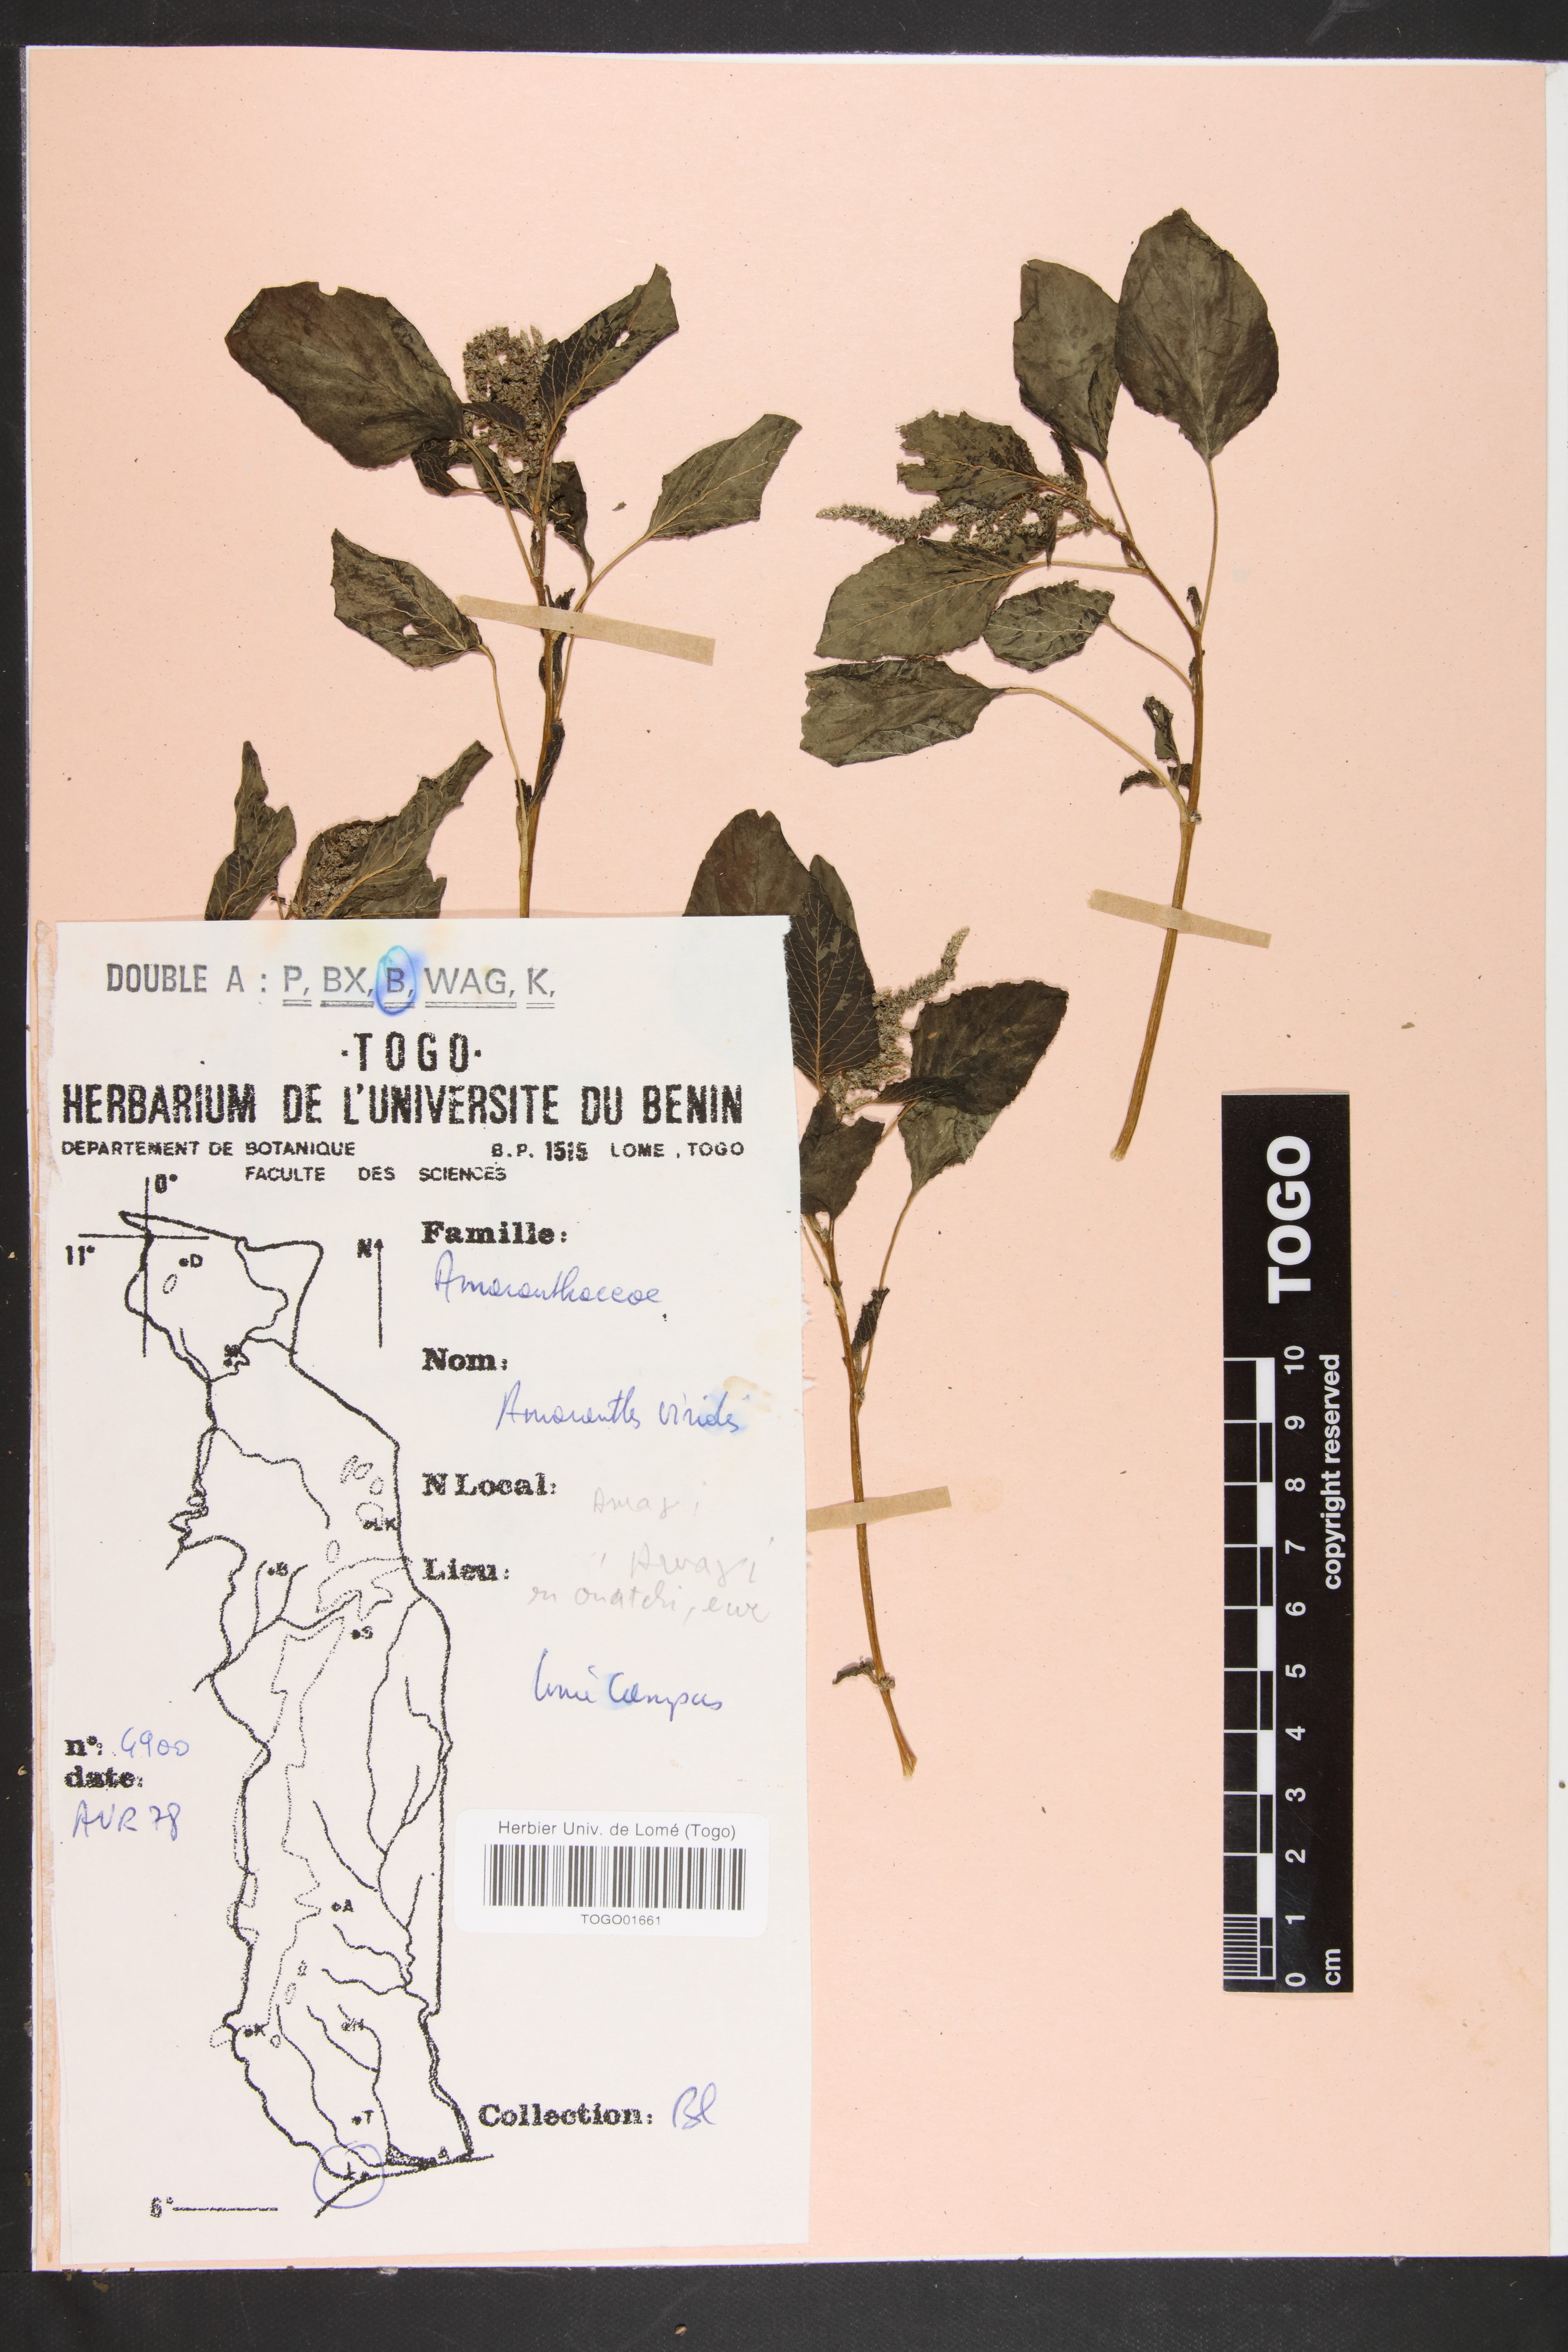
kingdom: Plantae
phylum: Tracheophyta
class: Magnoliopsida
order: Caryophyllales
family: Amaranthaceae
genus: Amaranthus
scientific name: Amaranthus viridis
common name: Slender amaranth
